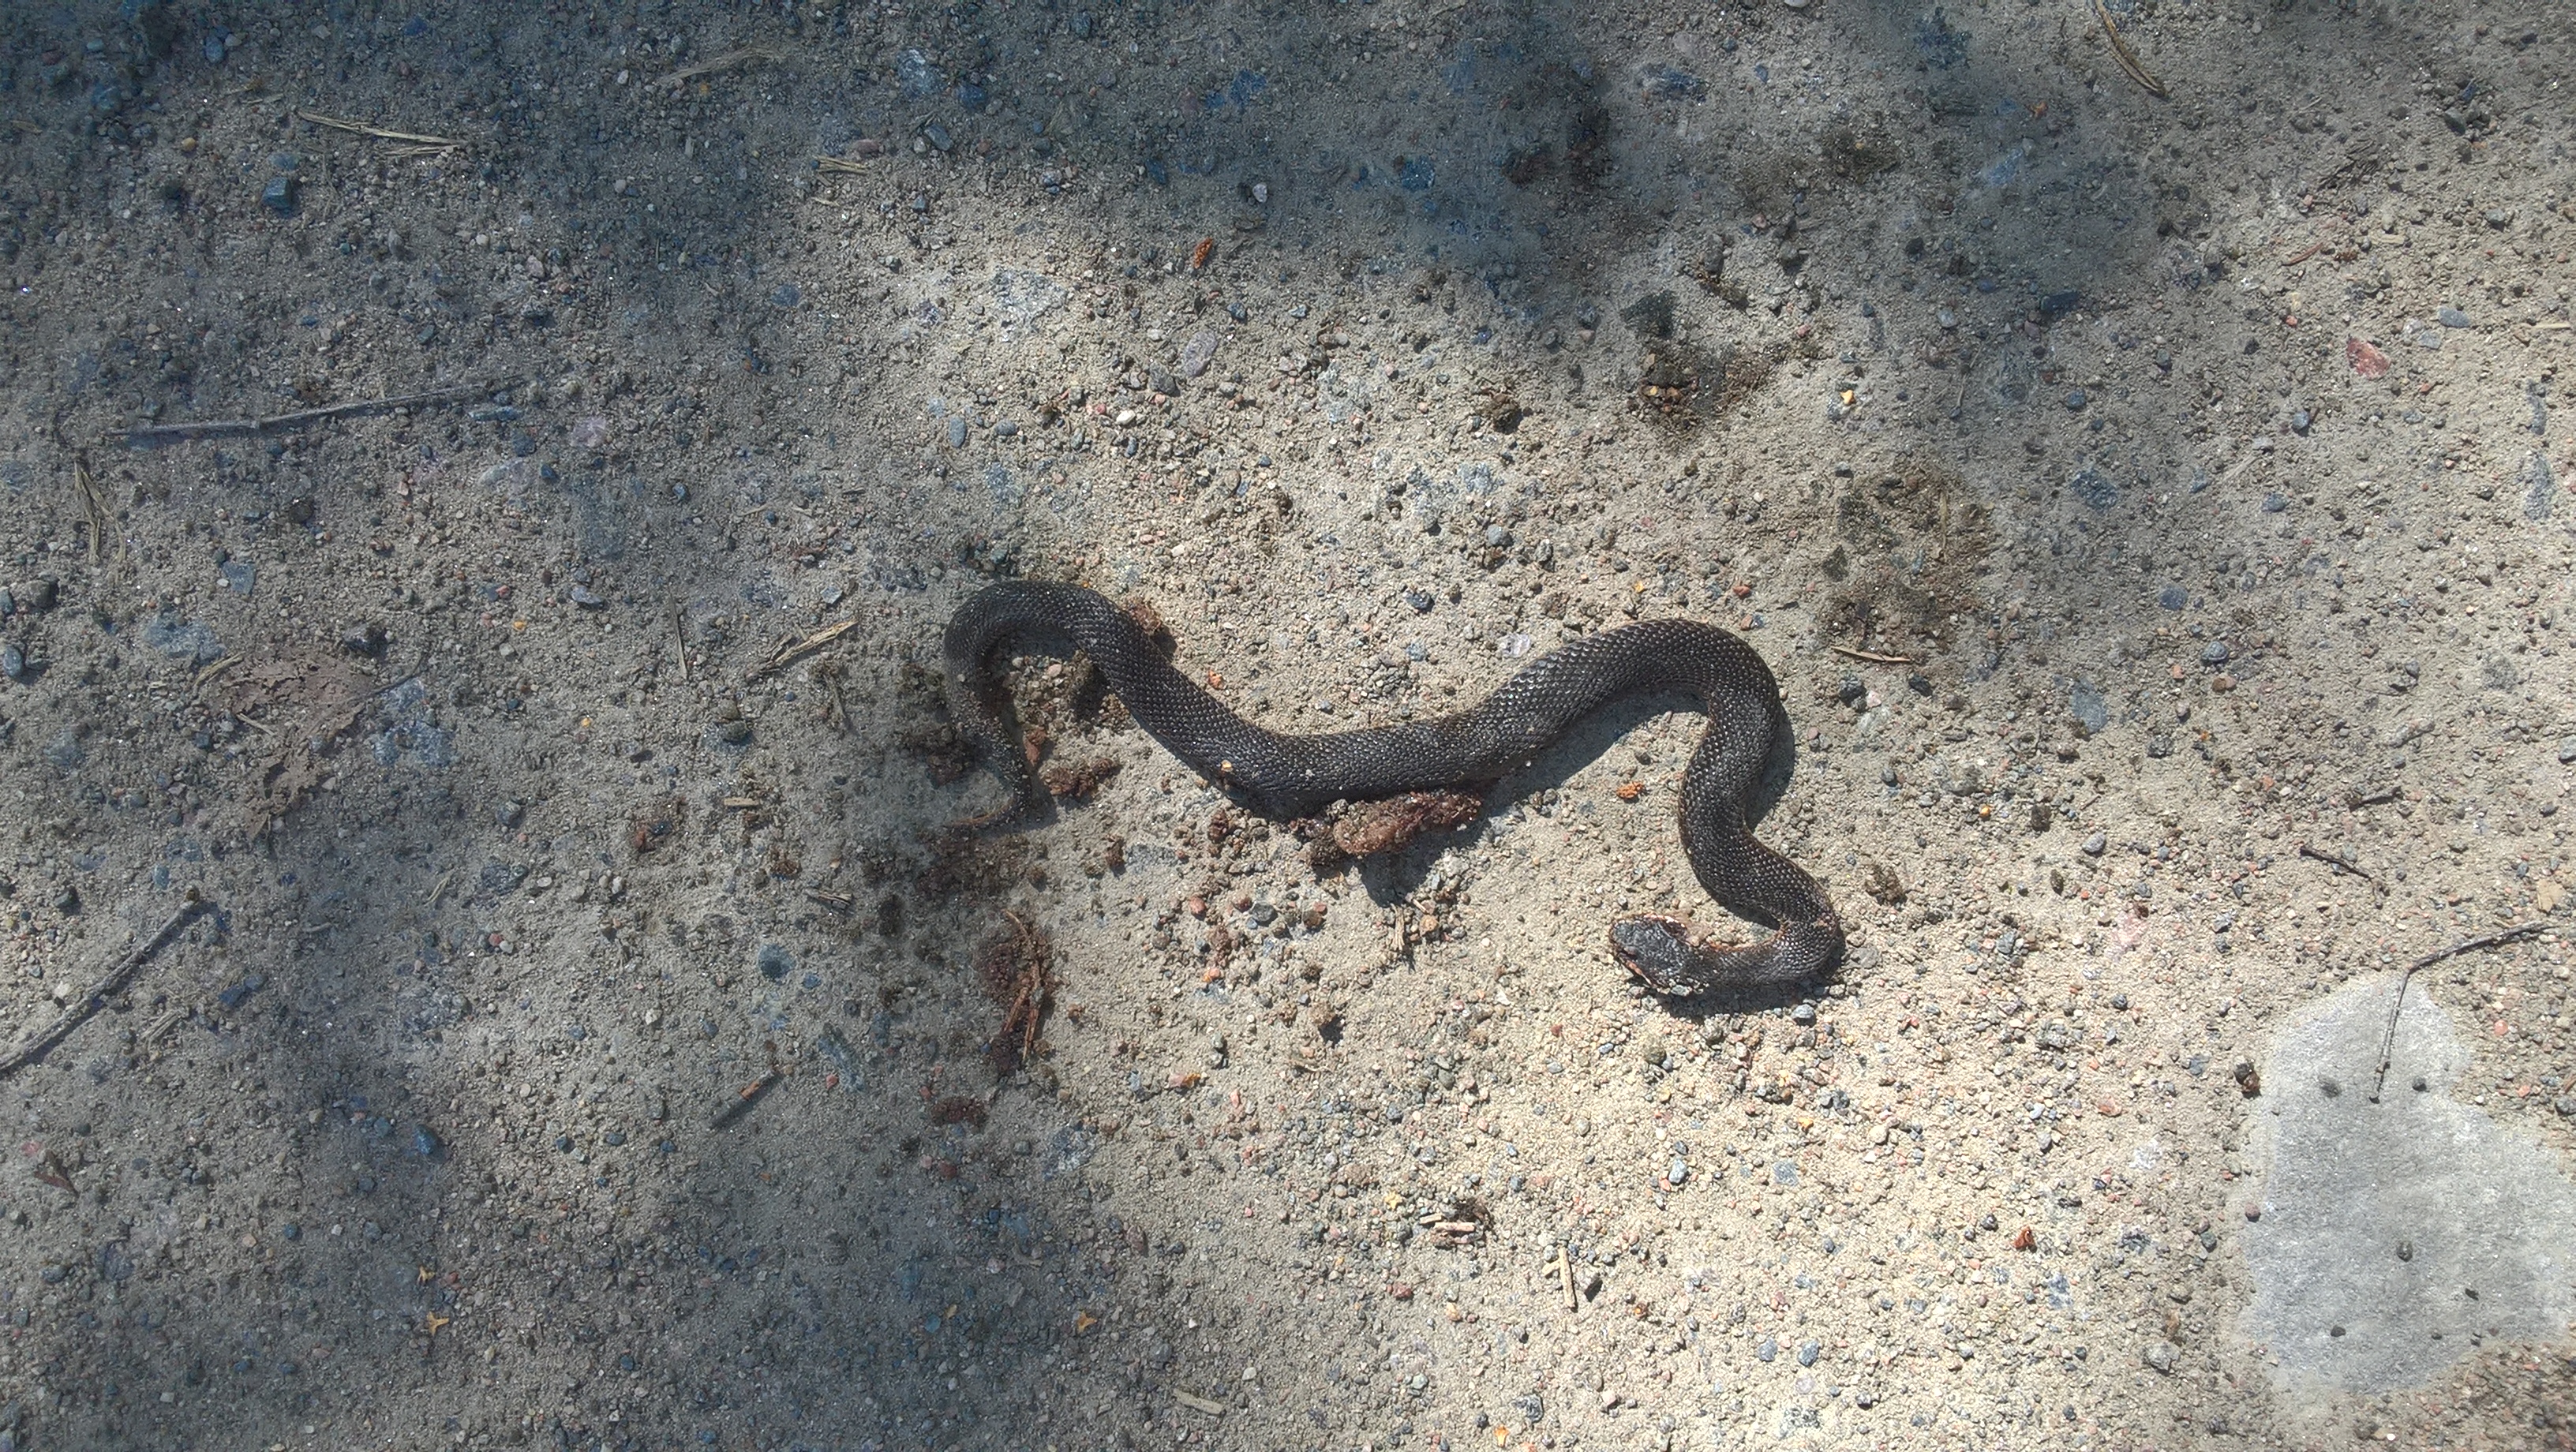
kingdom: Animalia
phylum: Chordata
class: Squamata
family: Viperidae
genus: Vipera
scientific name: Vipera berus
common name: Adder
